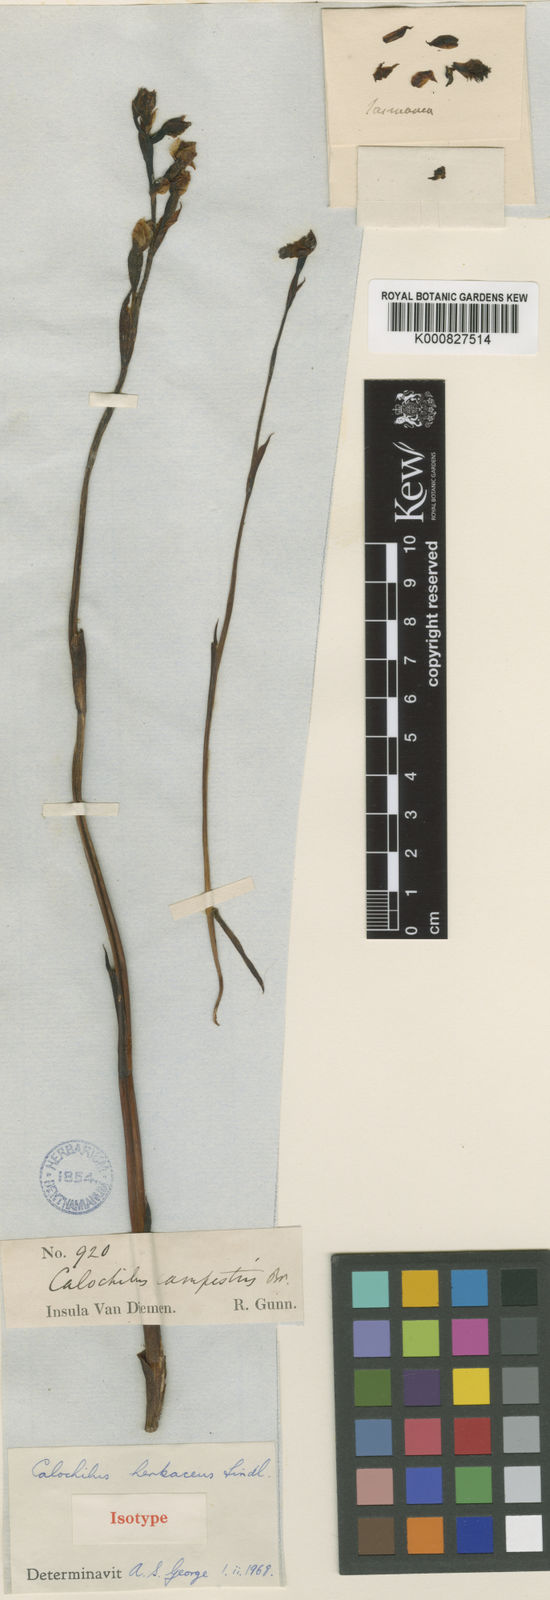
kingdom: Plantae
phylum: Tracheophyta
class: Liliopsida
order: Asparagales
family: Orchidaceae
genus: Calochilus
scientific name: Calochilus herbaceus
